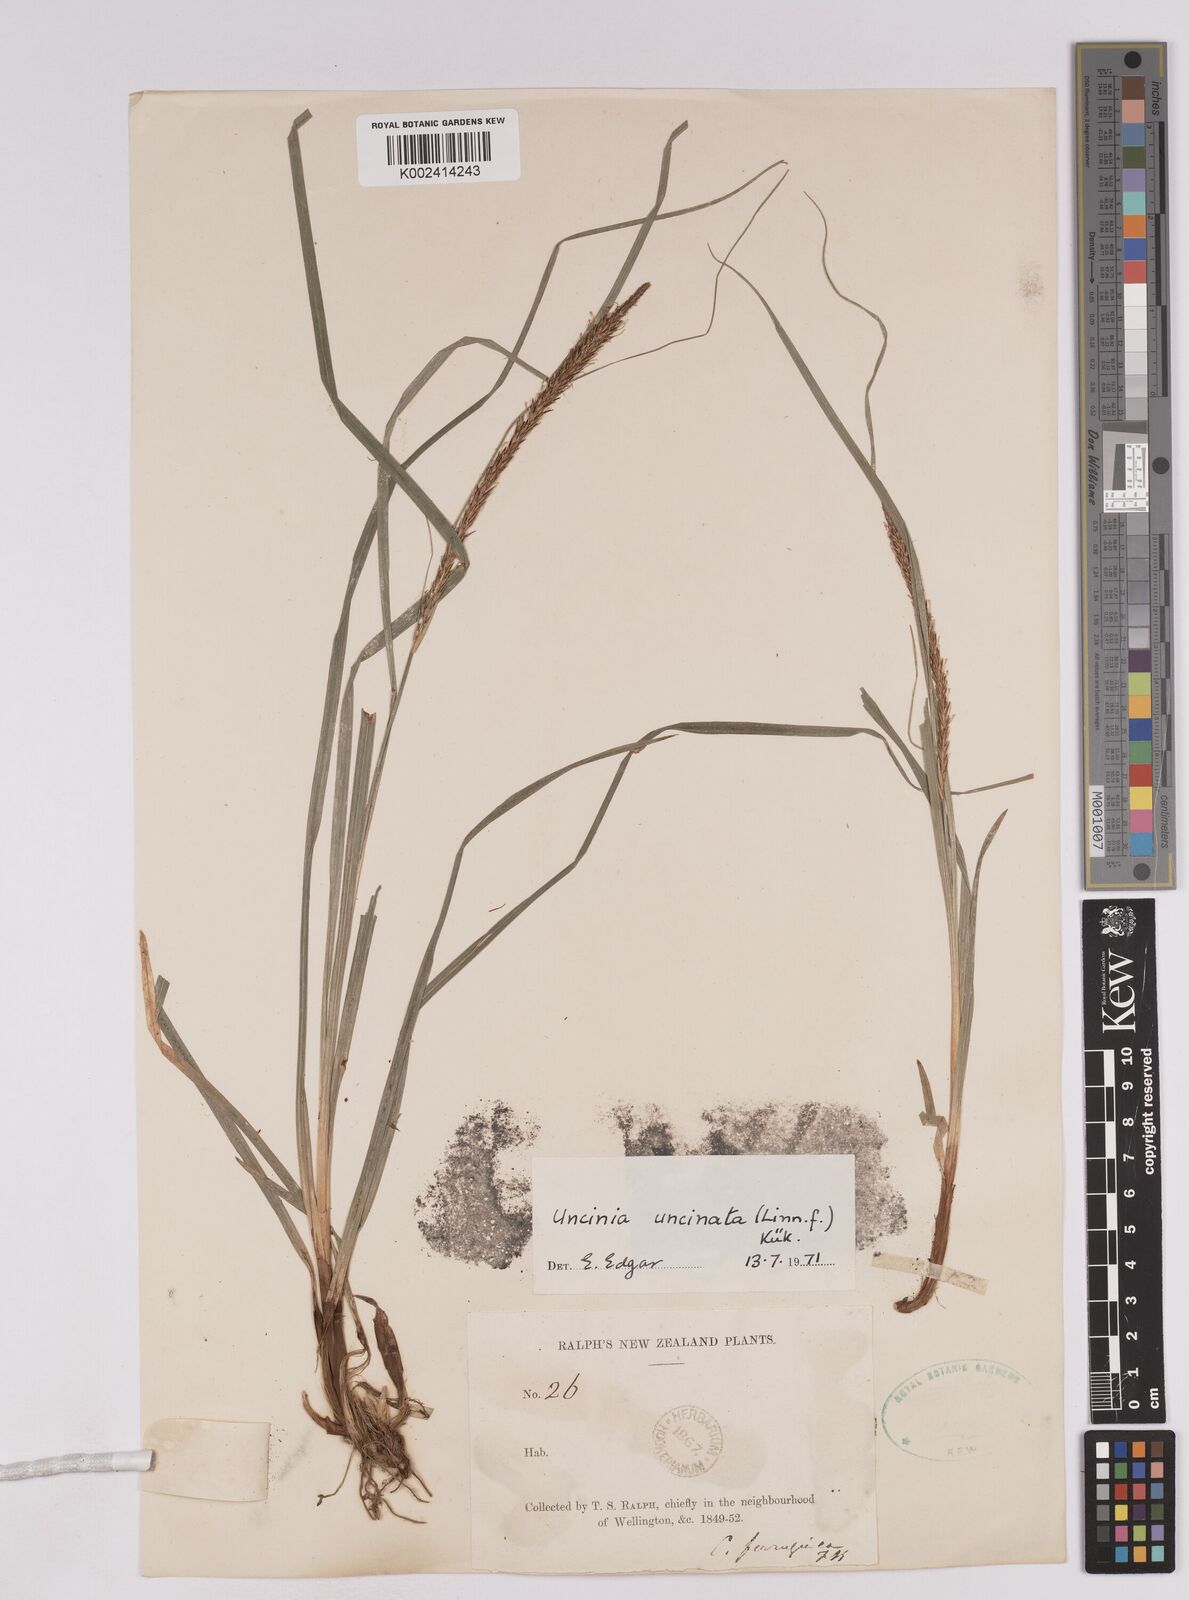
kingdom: Plantae
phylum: Tracheophyta
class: Liliopsida
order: Poales
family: Cyperaceae
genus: Carex
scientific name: Carex uncinata
